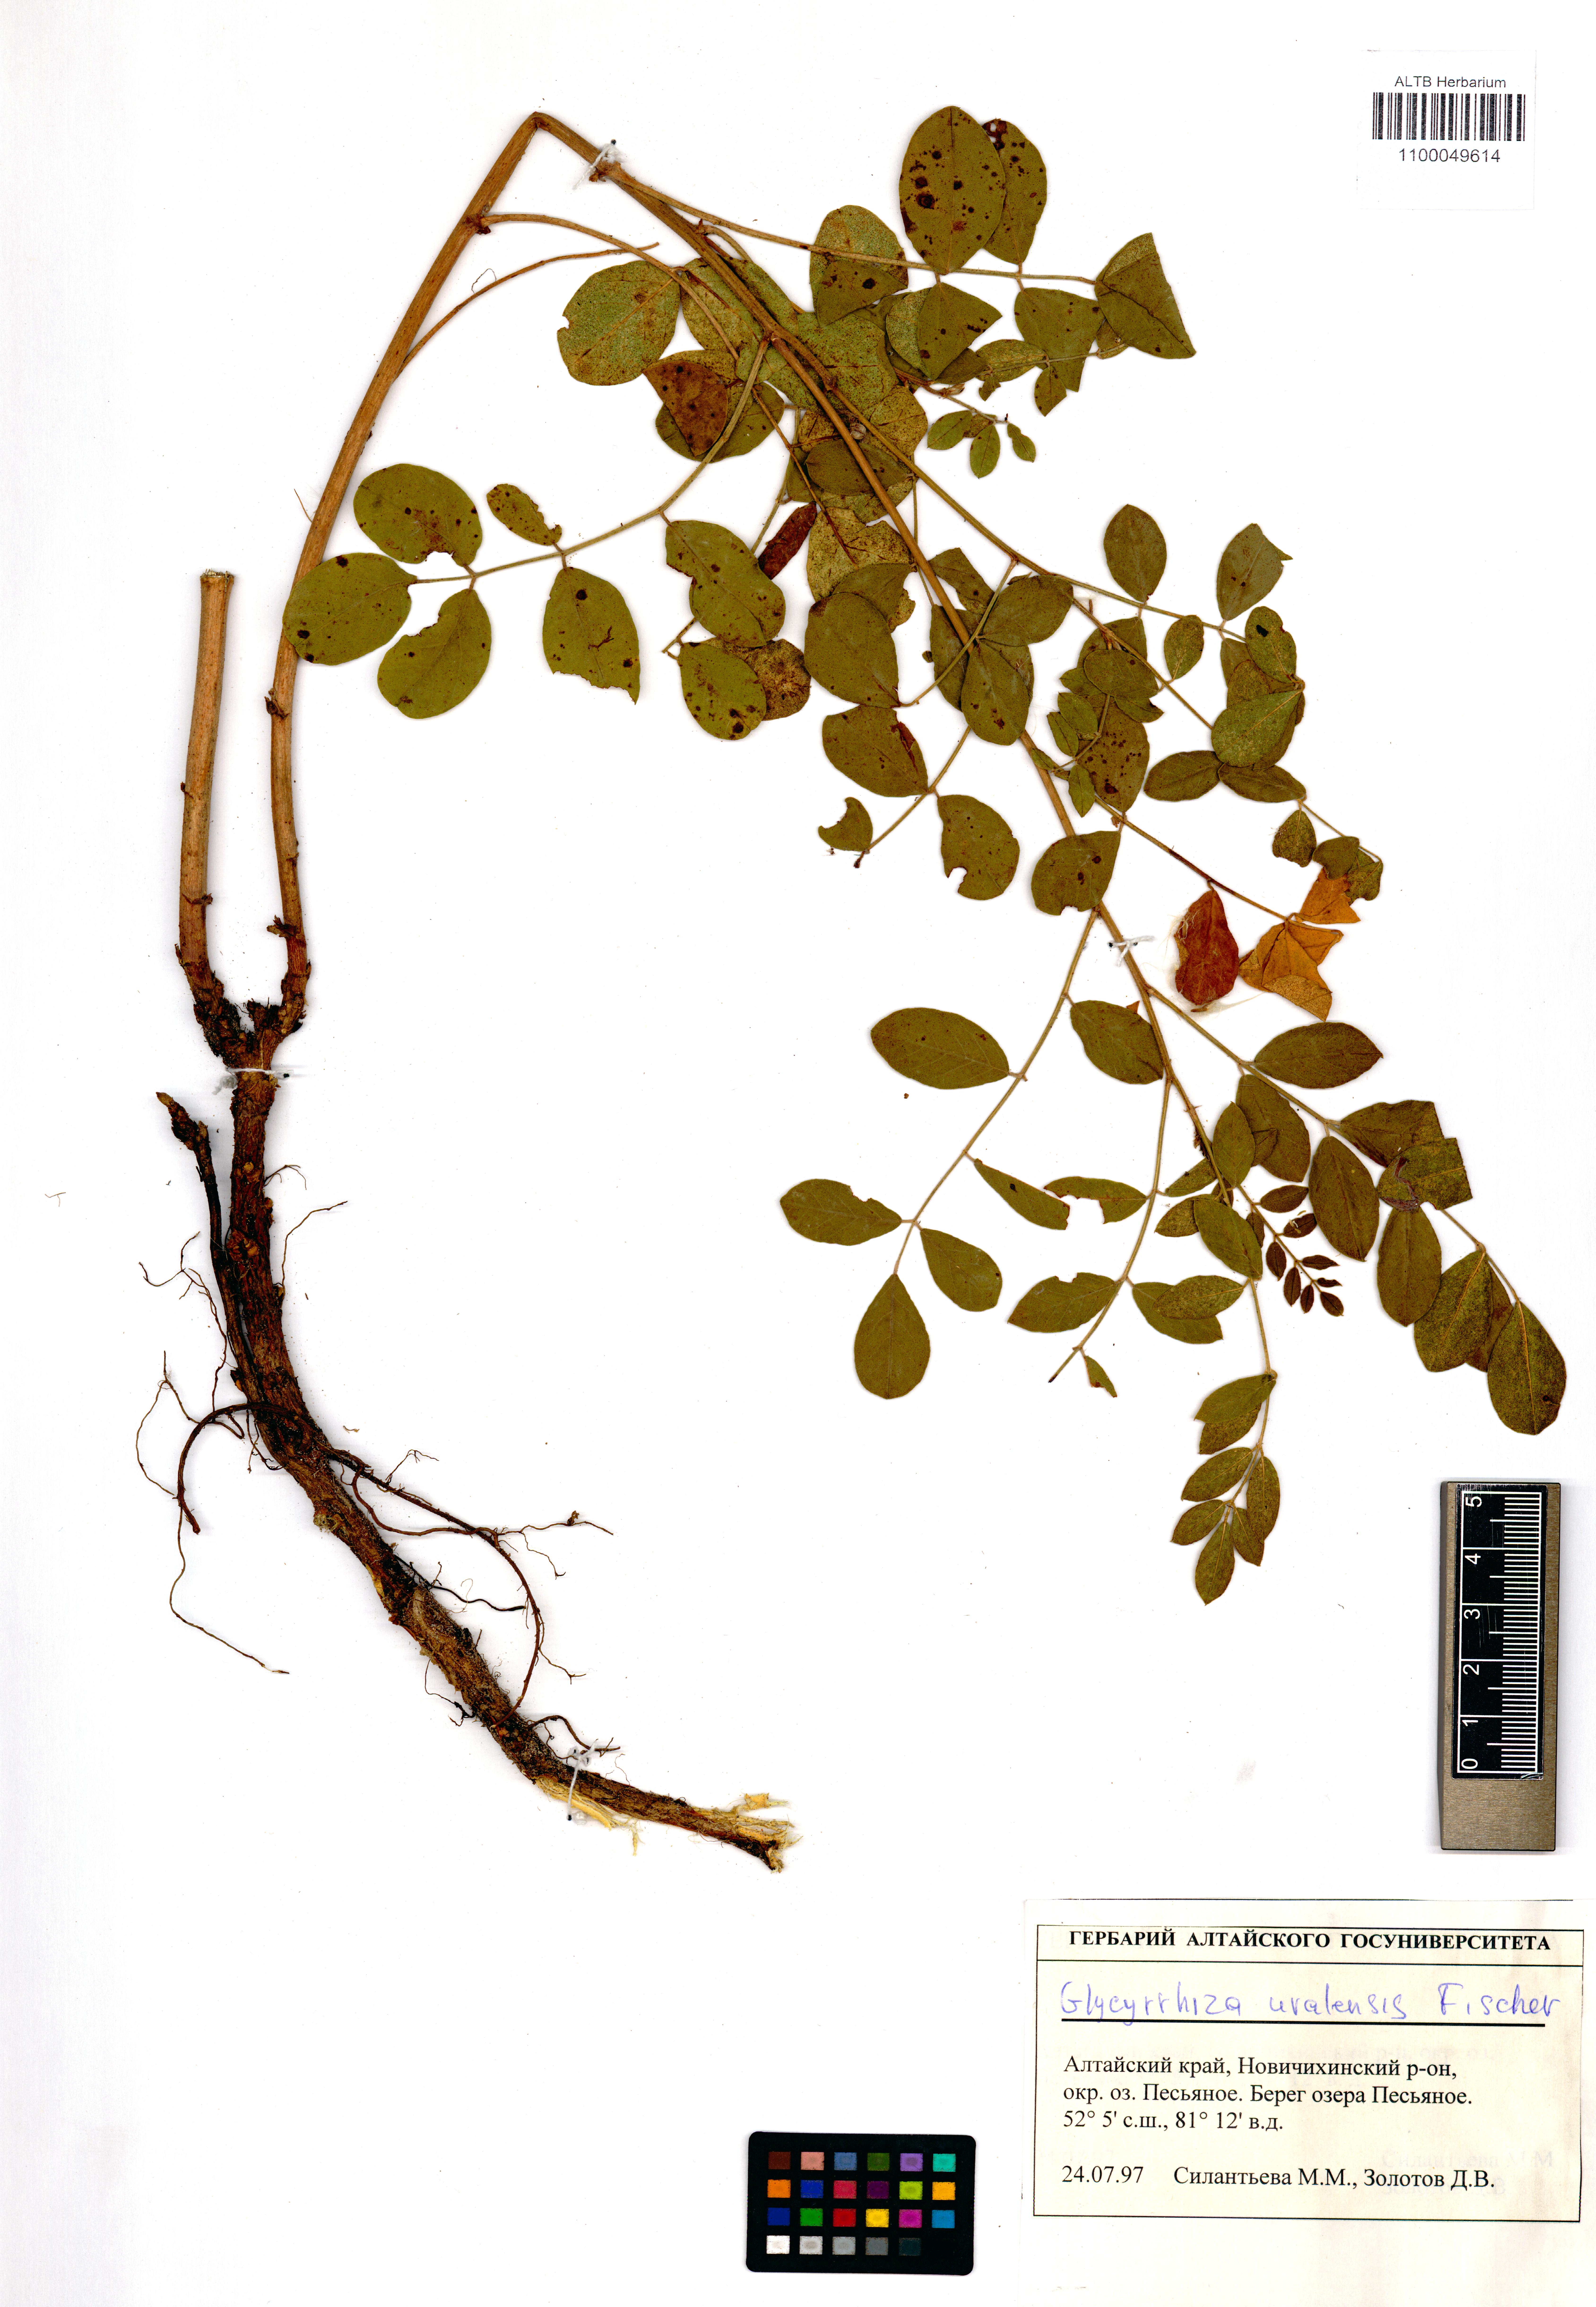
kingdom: Plantae
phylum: Tracheophyta
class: Magnoliopsida
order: Fabales
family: Fabaceae
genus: Glycyrrhiza
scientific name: Glycyrrhiza uralensis
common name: Chinese licorice
